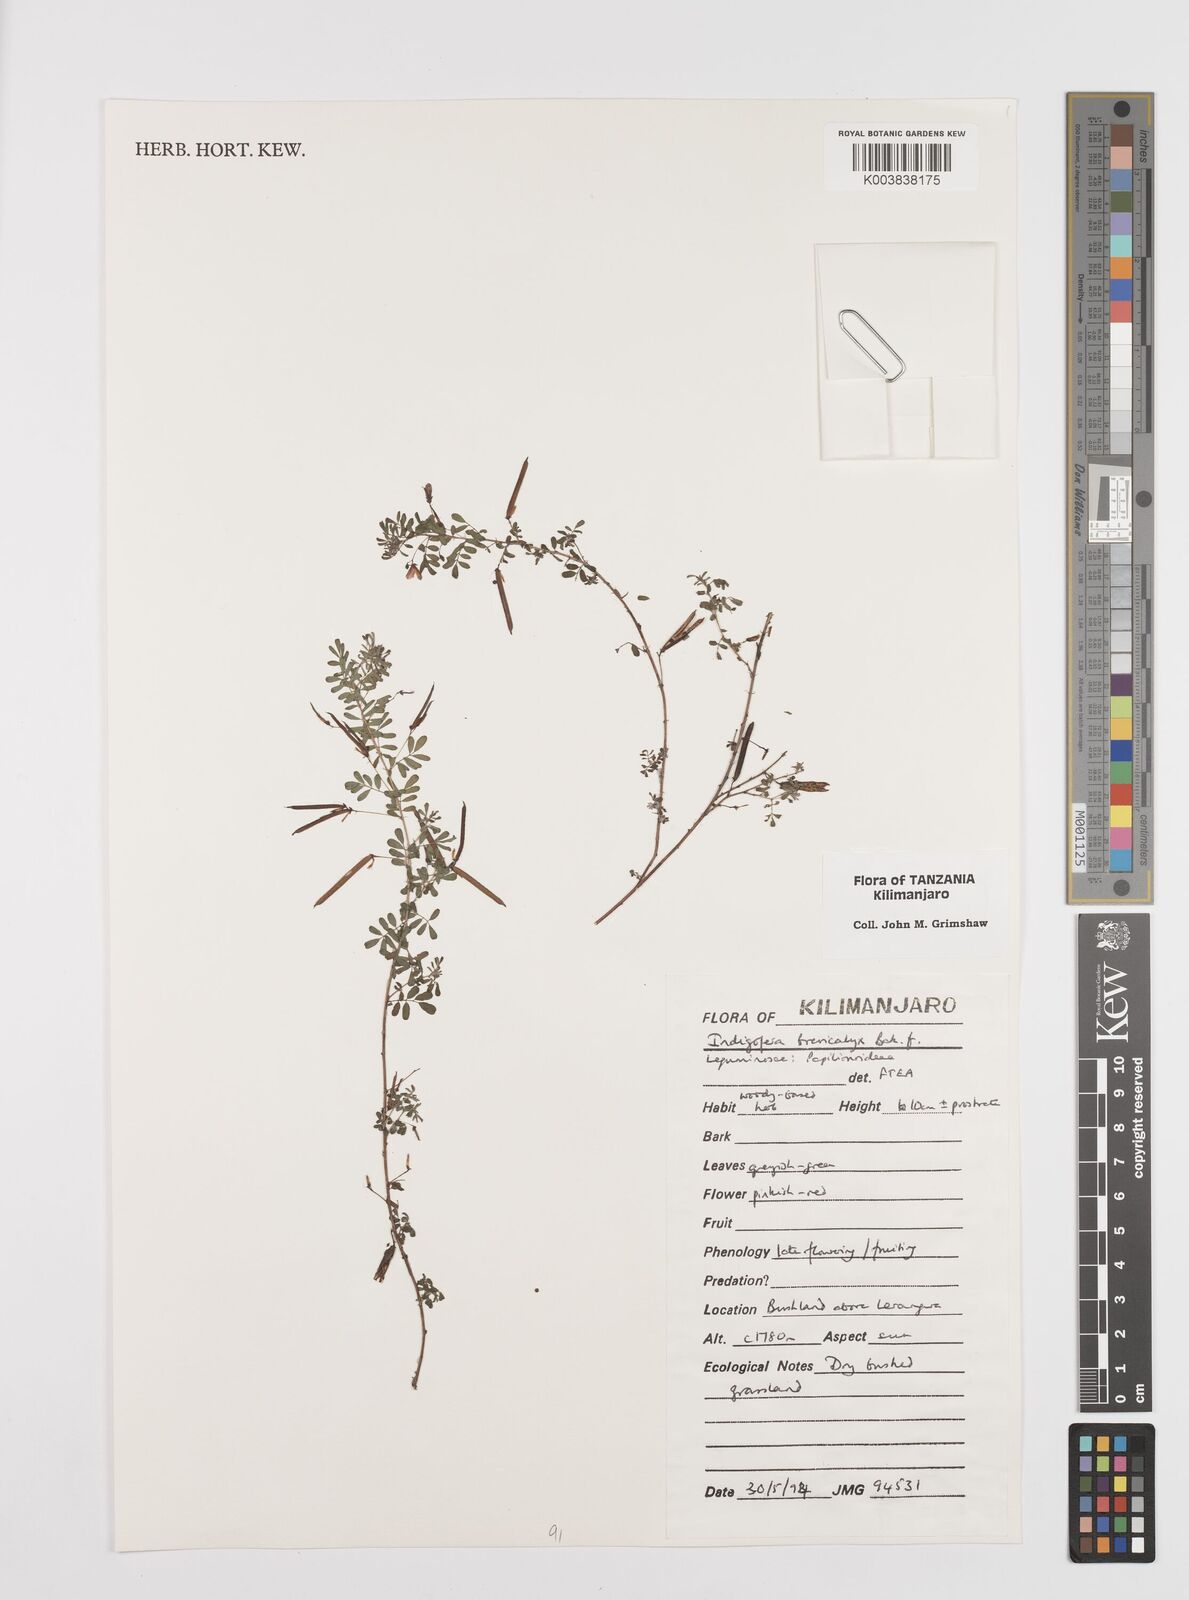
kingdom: Plantae
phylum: Tracheophyta
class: Magnoliopsida
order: Fabales
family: Fabaceae
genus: Indigofera
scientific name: Indigofera brevicalyx
